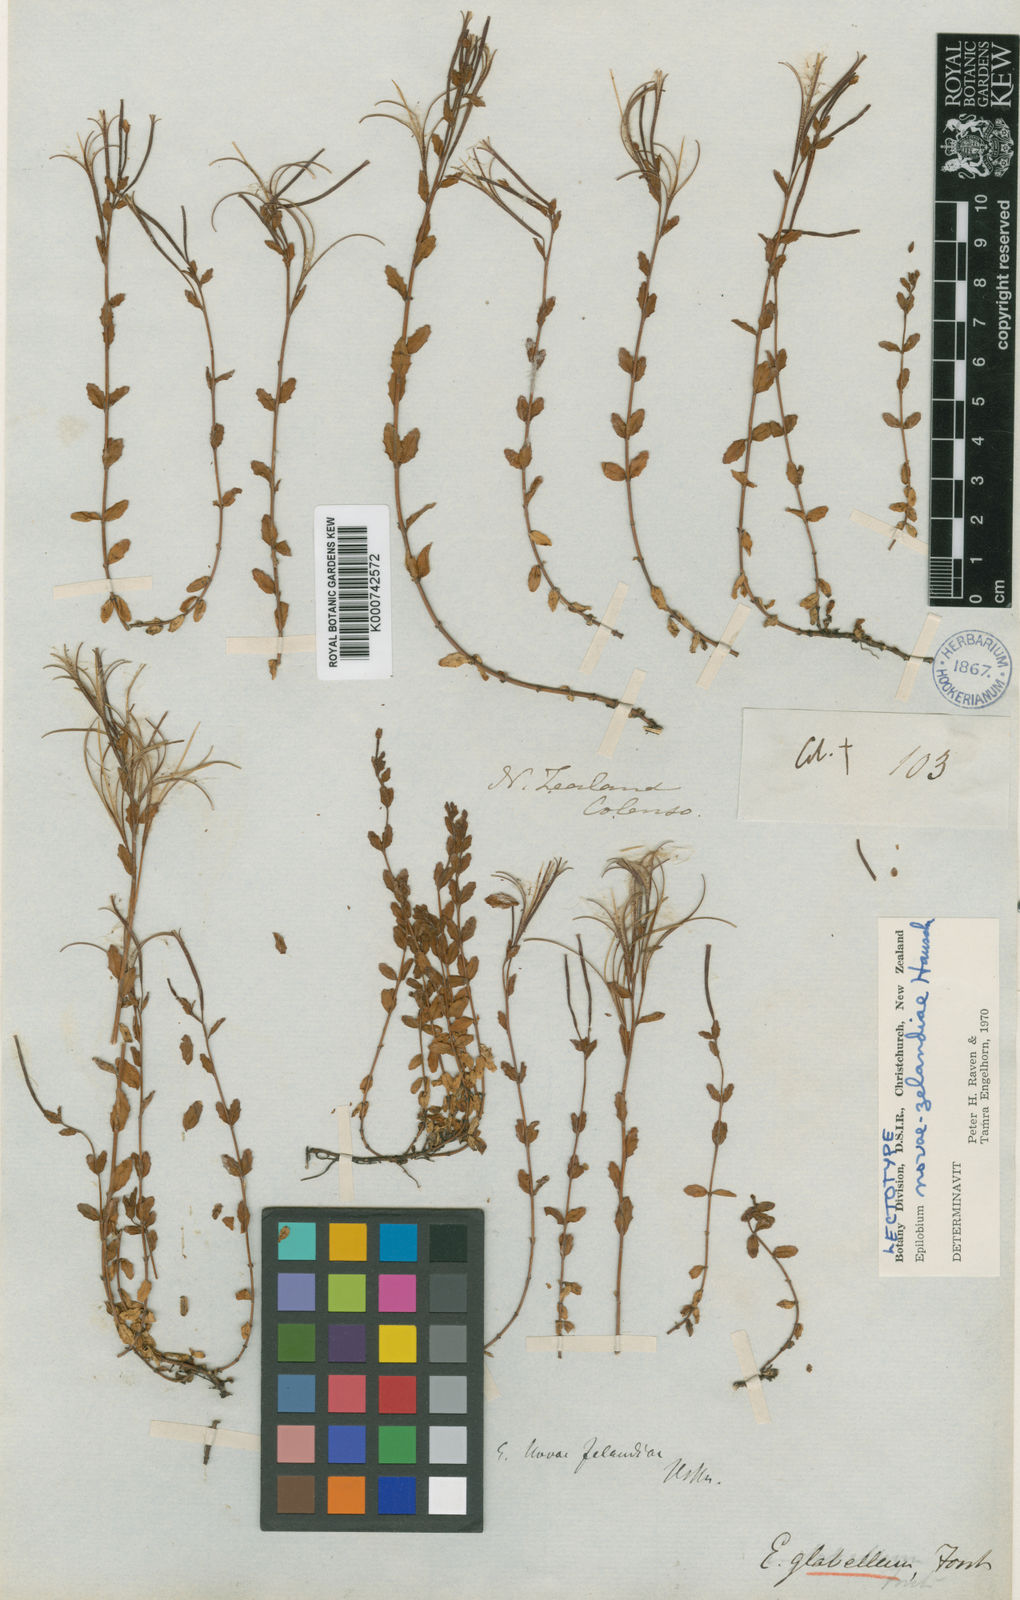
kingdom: Plantae
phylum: Tracheophyta
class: Magnoliopsida
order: Myrtales
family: Onagraceae
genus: Epilobium
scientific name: Epilobium alsinoides
